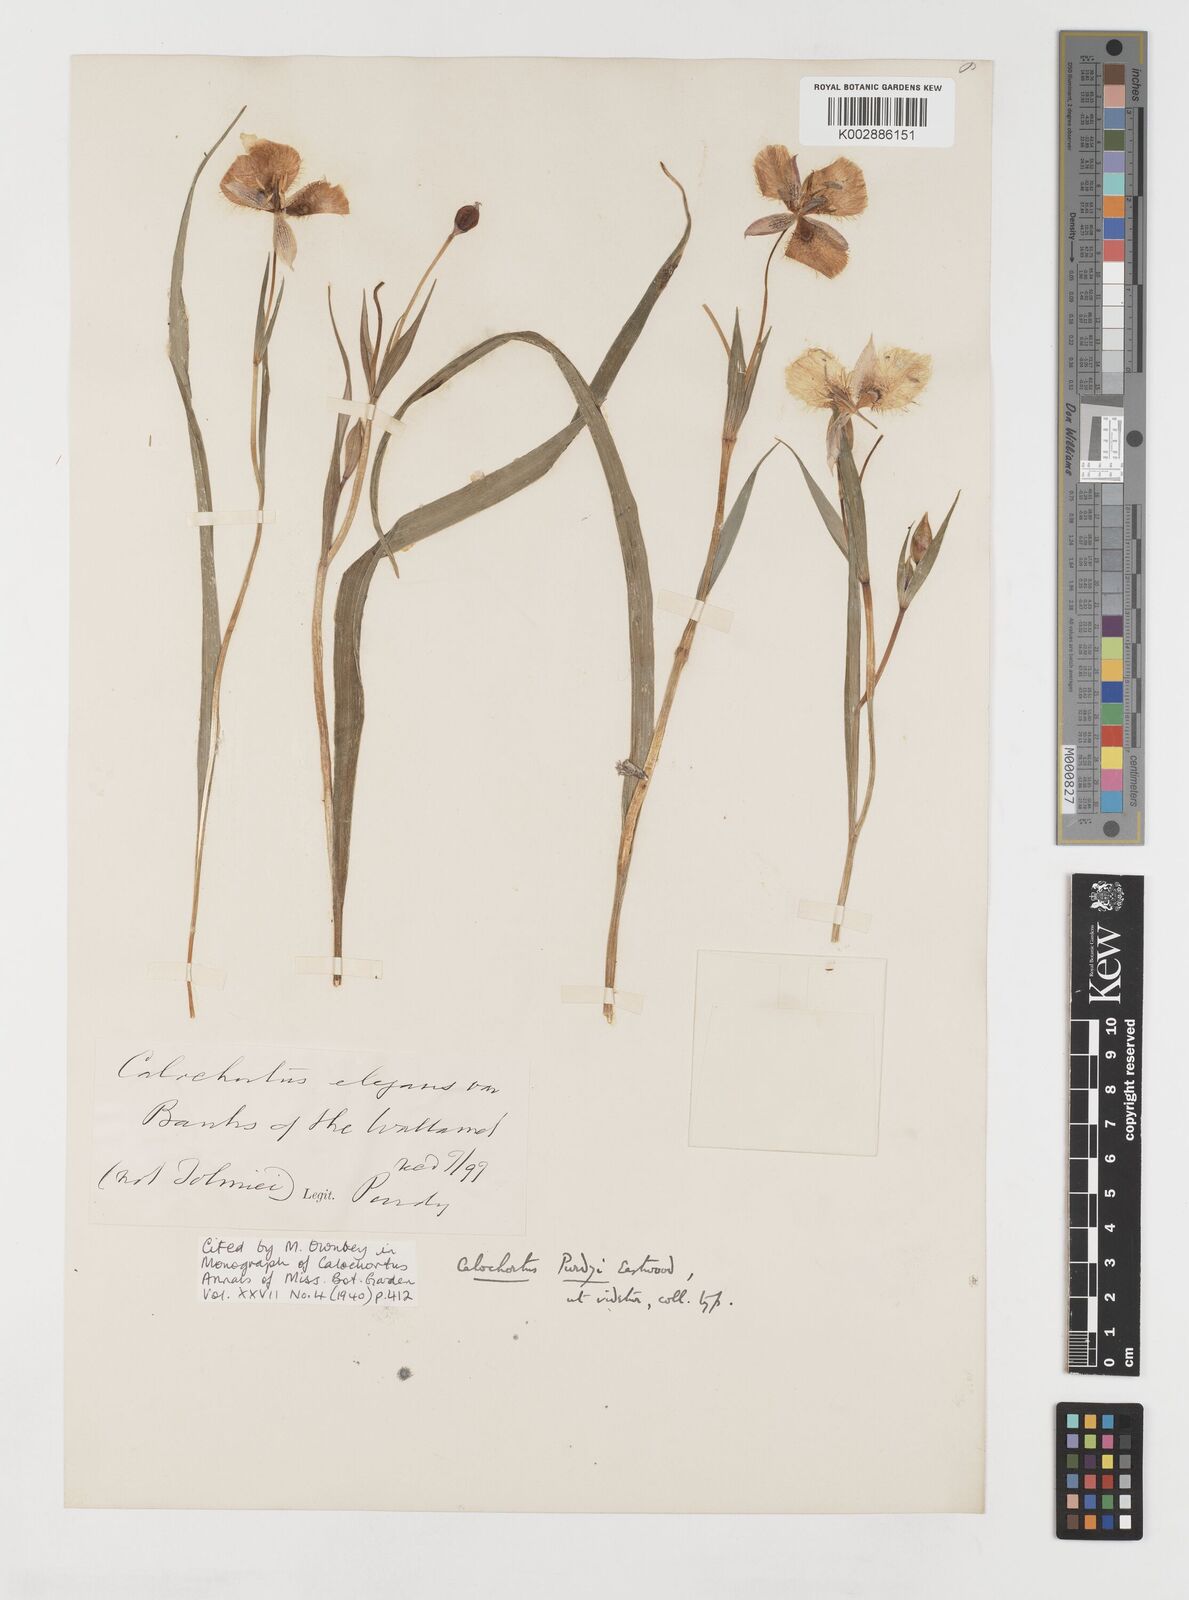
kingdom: Plantae
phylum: Tracheophyta
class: Liliopsida
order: Liliales
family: Liliaceae
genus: Calochortus
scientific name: Calochortus tolmiei
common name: Pussy-ears
